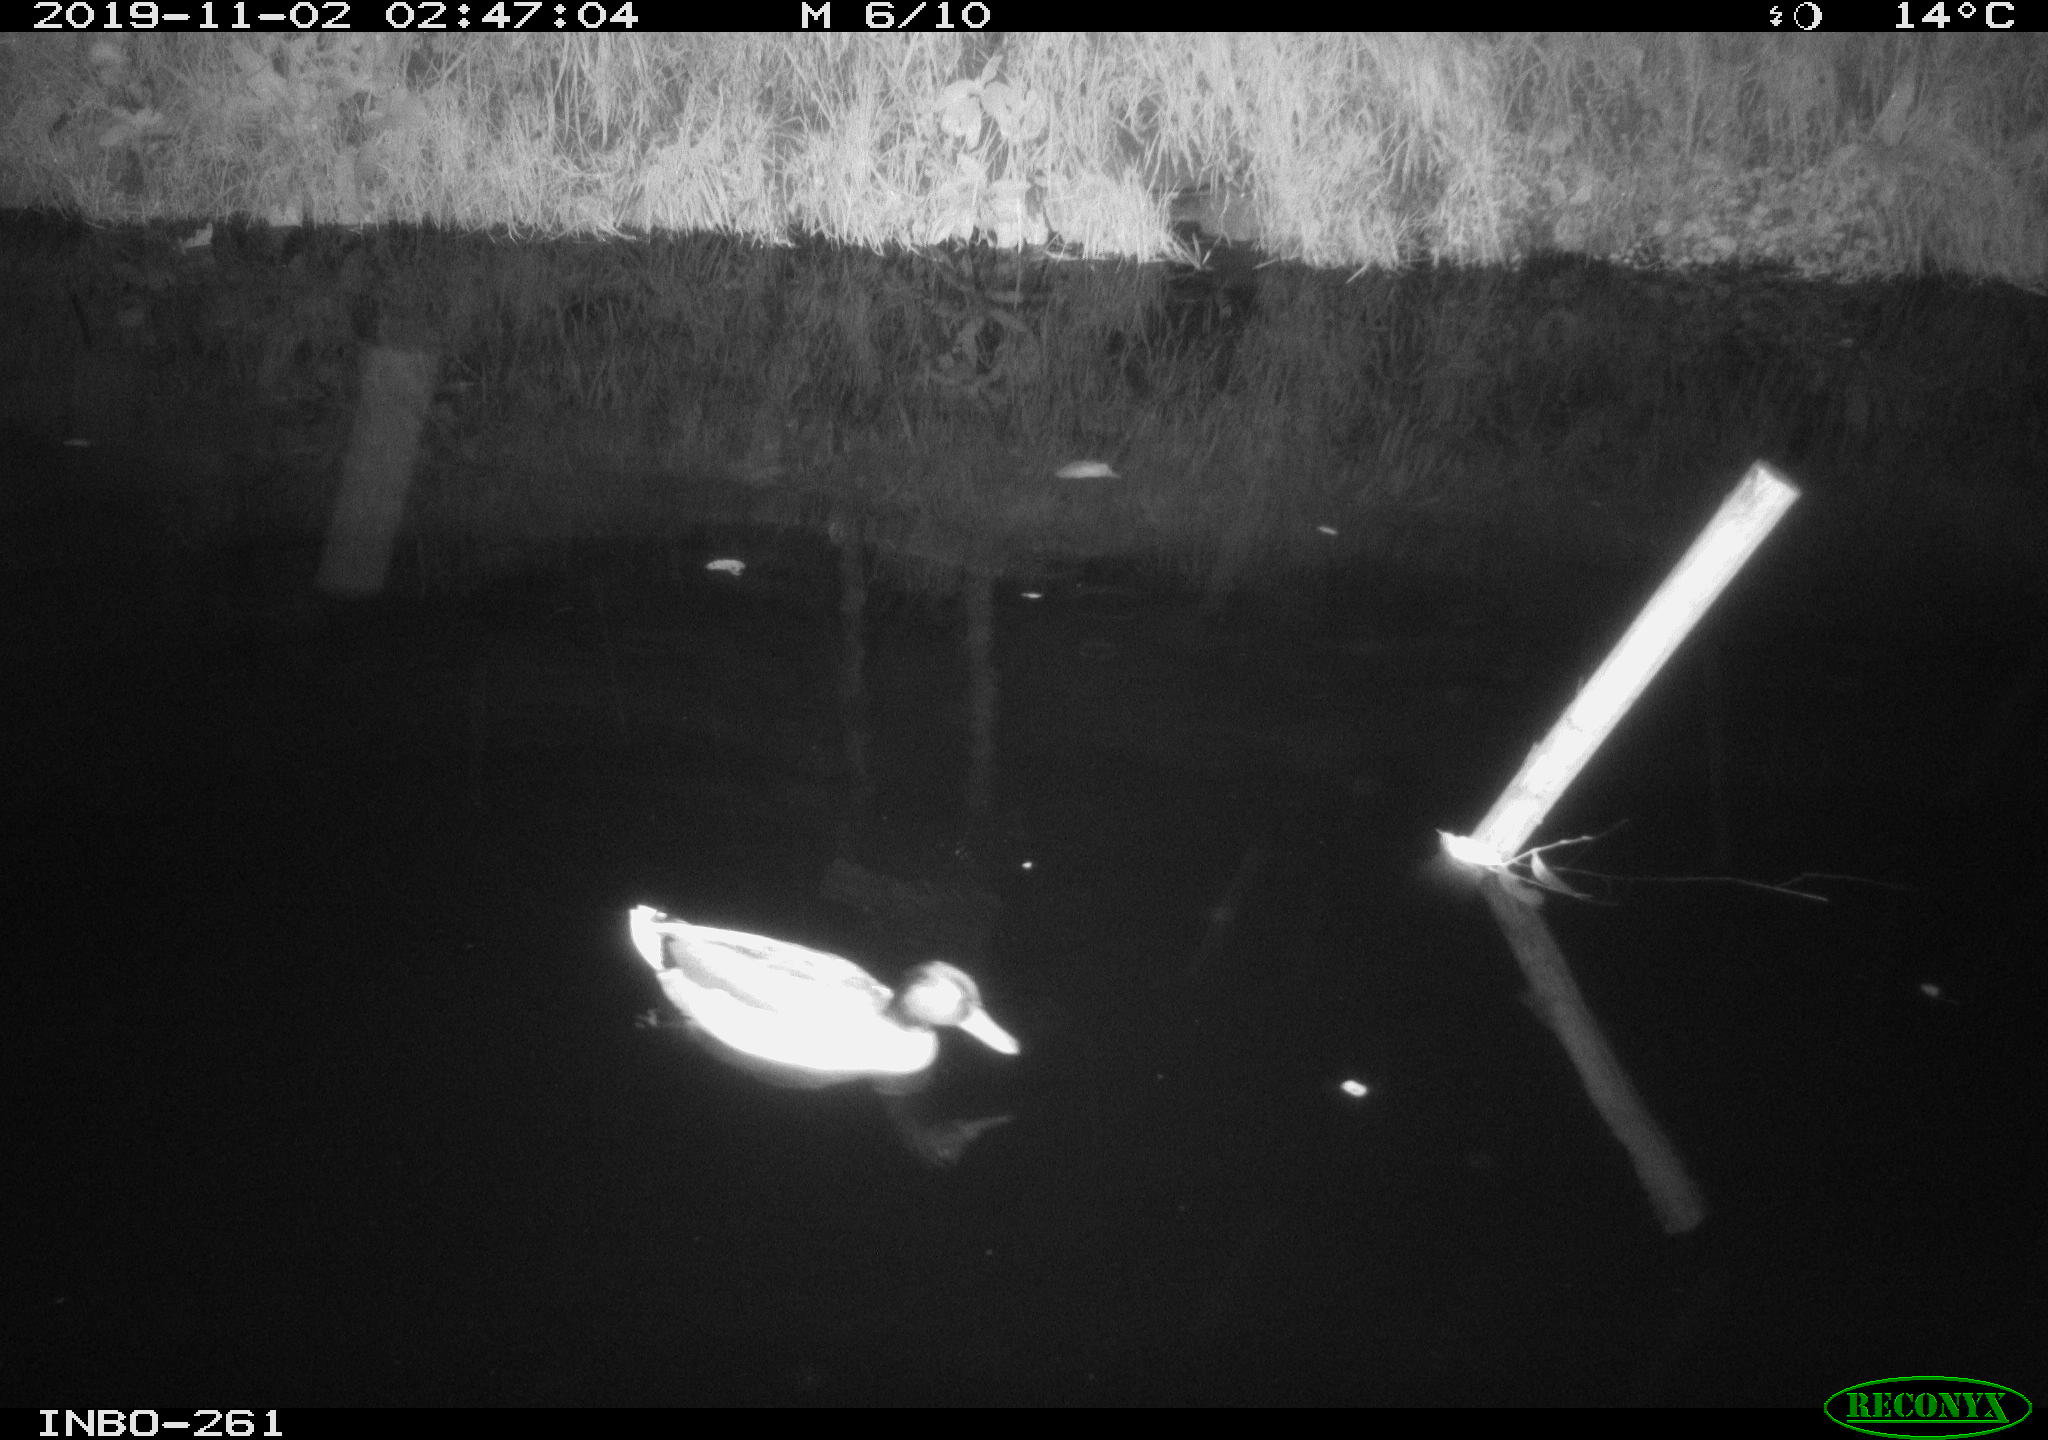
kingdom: Animalia
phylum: Chordata
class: Aves
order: Anseriformes
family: Anatidae
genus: Anas
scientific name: Anas platyrhynchos
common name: Mallard
